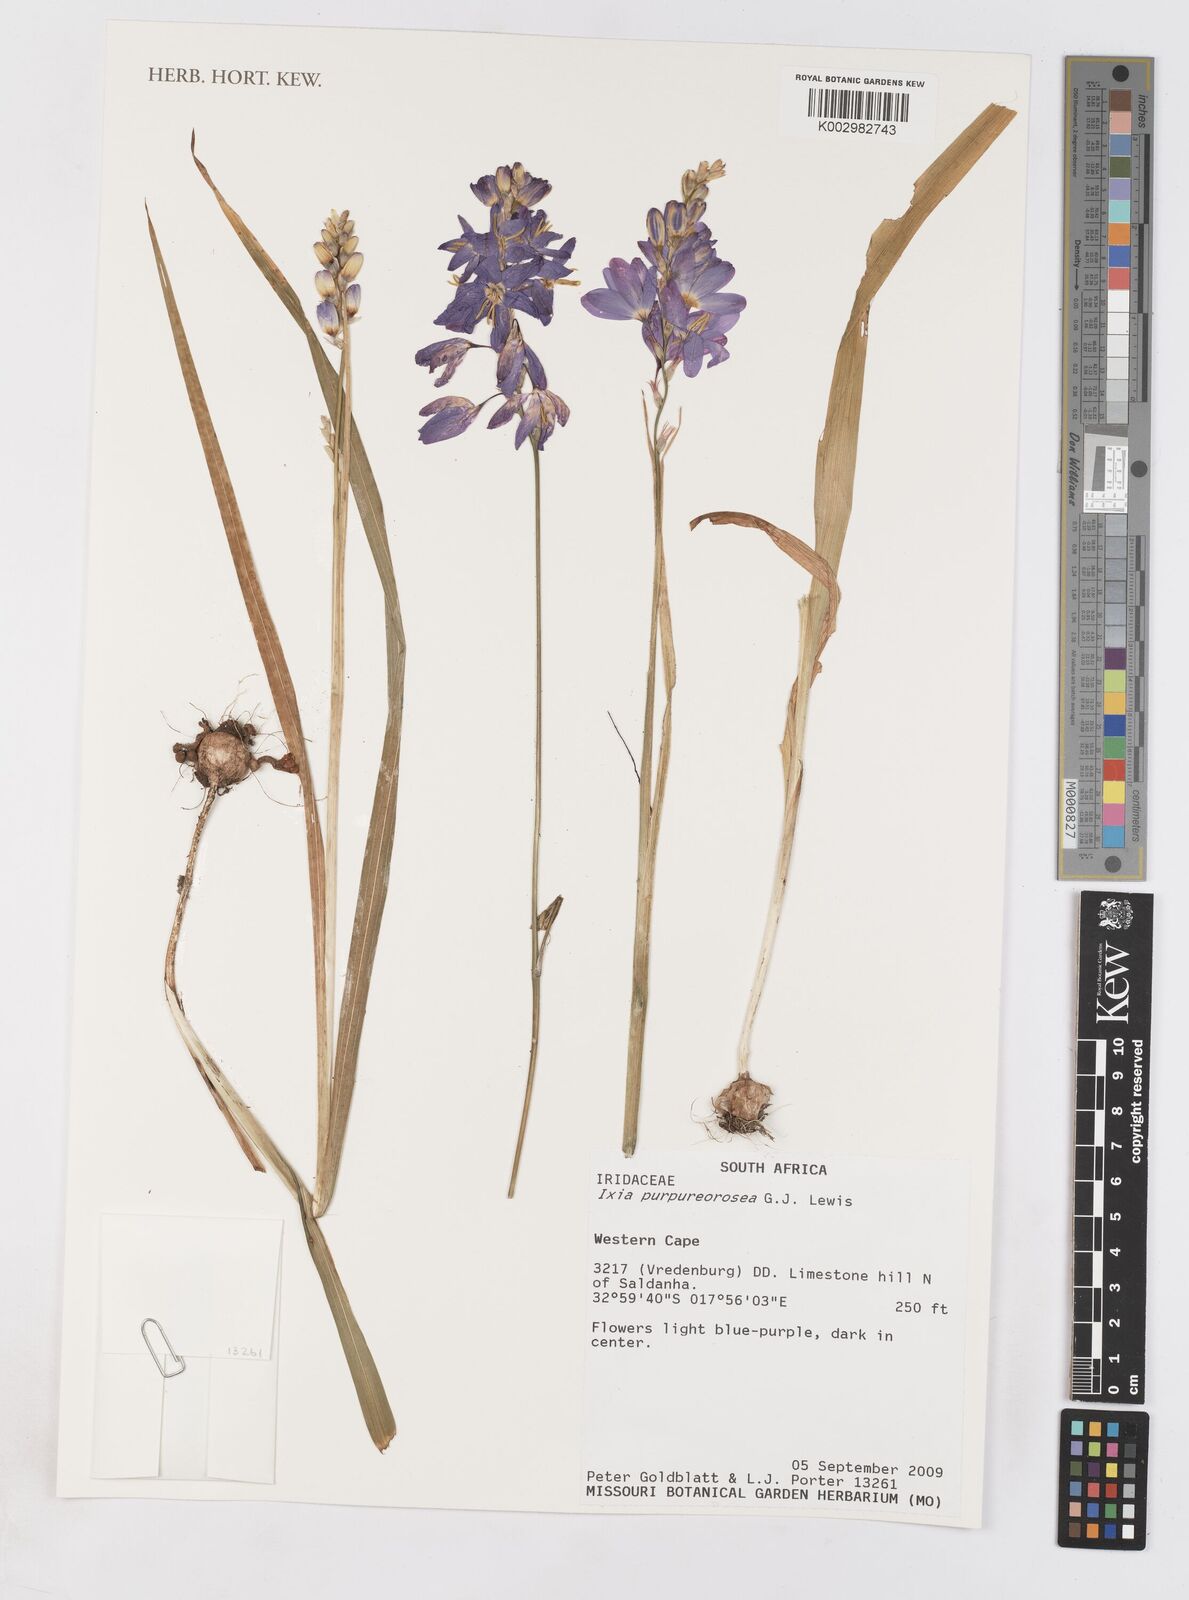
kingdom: Plantae
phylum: Tracheophyta
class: Liliopsida
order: Asparagales
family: Iridaceae
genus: Ixia
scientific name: Ixia purpureorosea
